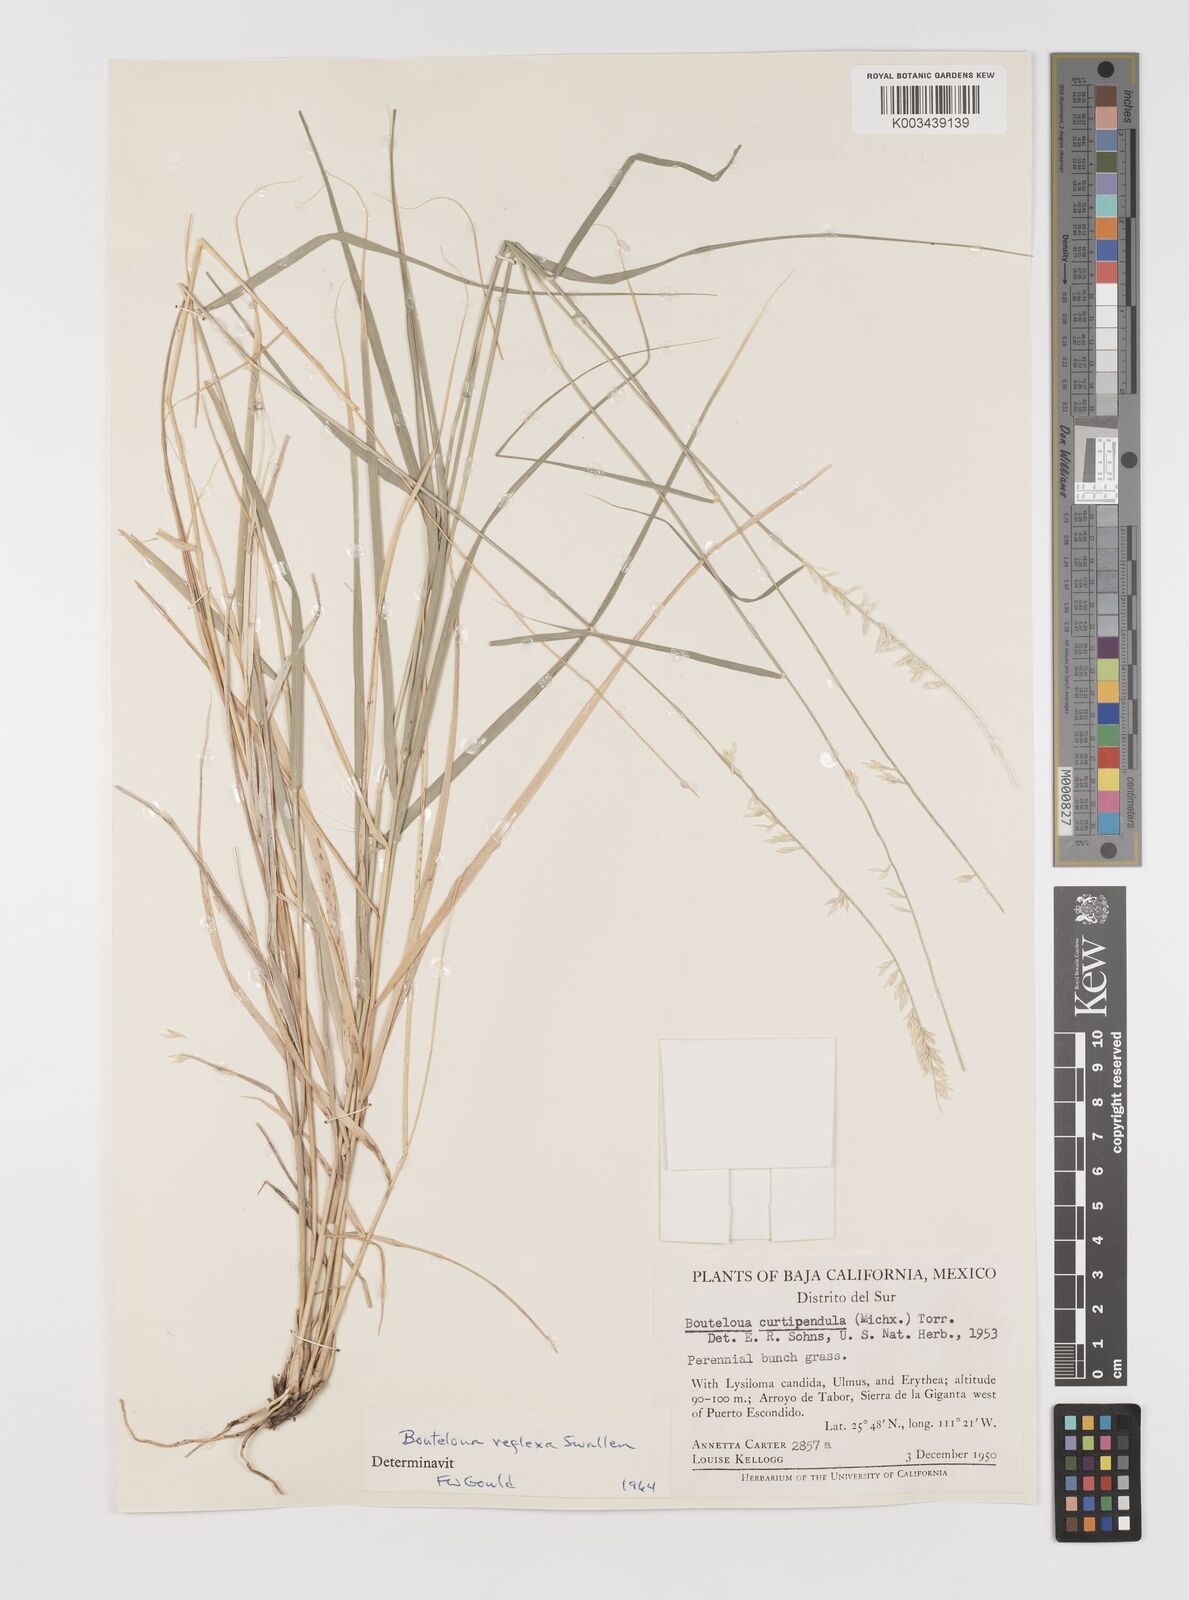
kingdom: Plantae
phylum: Tracheophyta
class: Liliopsida
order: Poales
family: Poaceae
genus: Bouteloua
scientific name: Bouteloua reflexa
